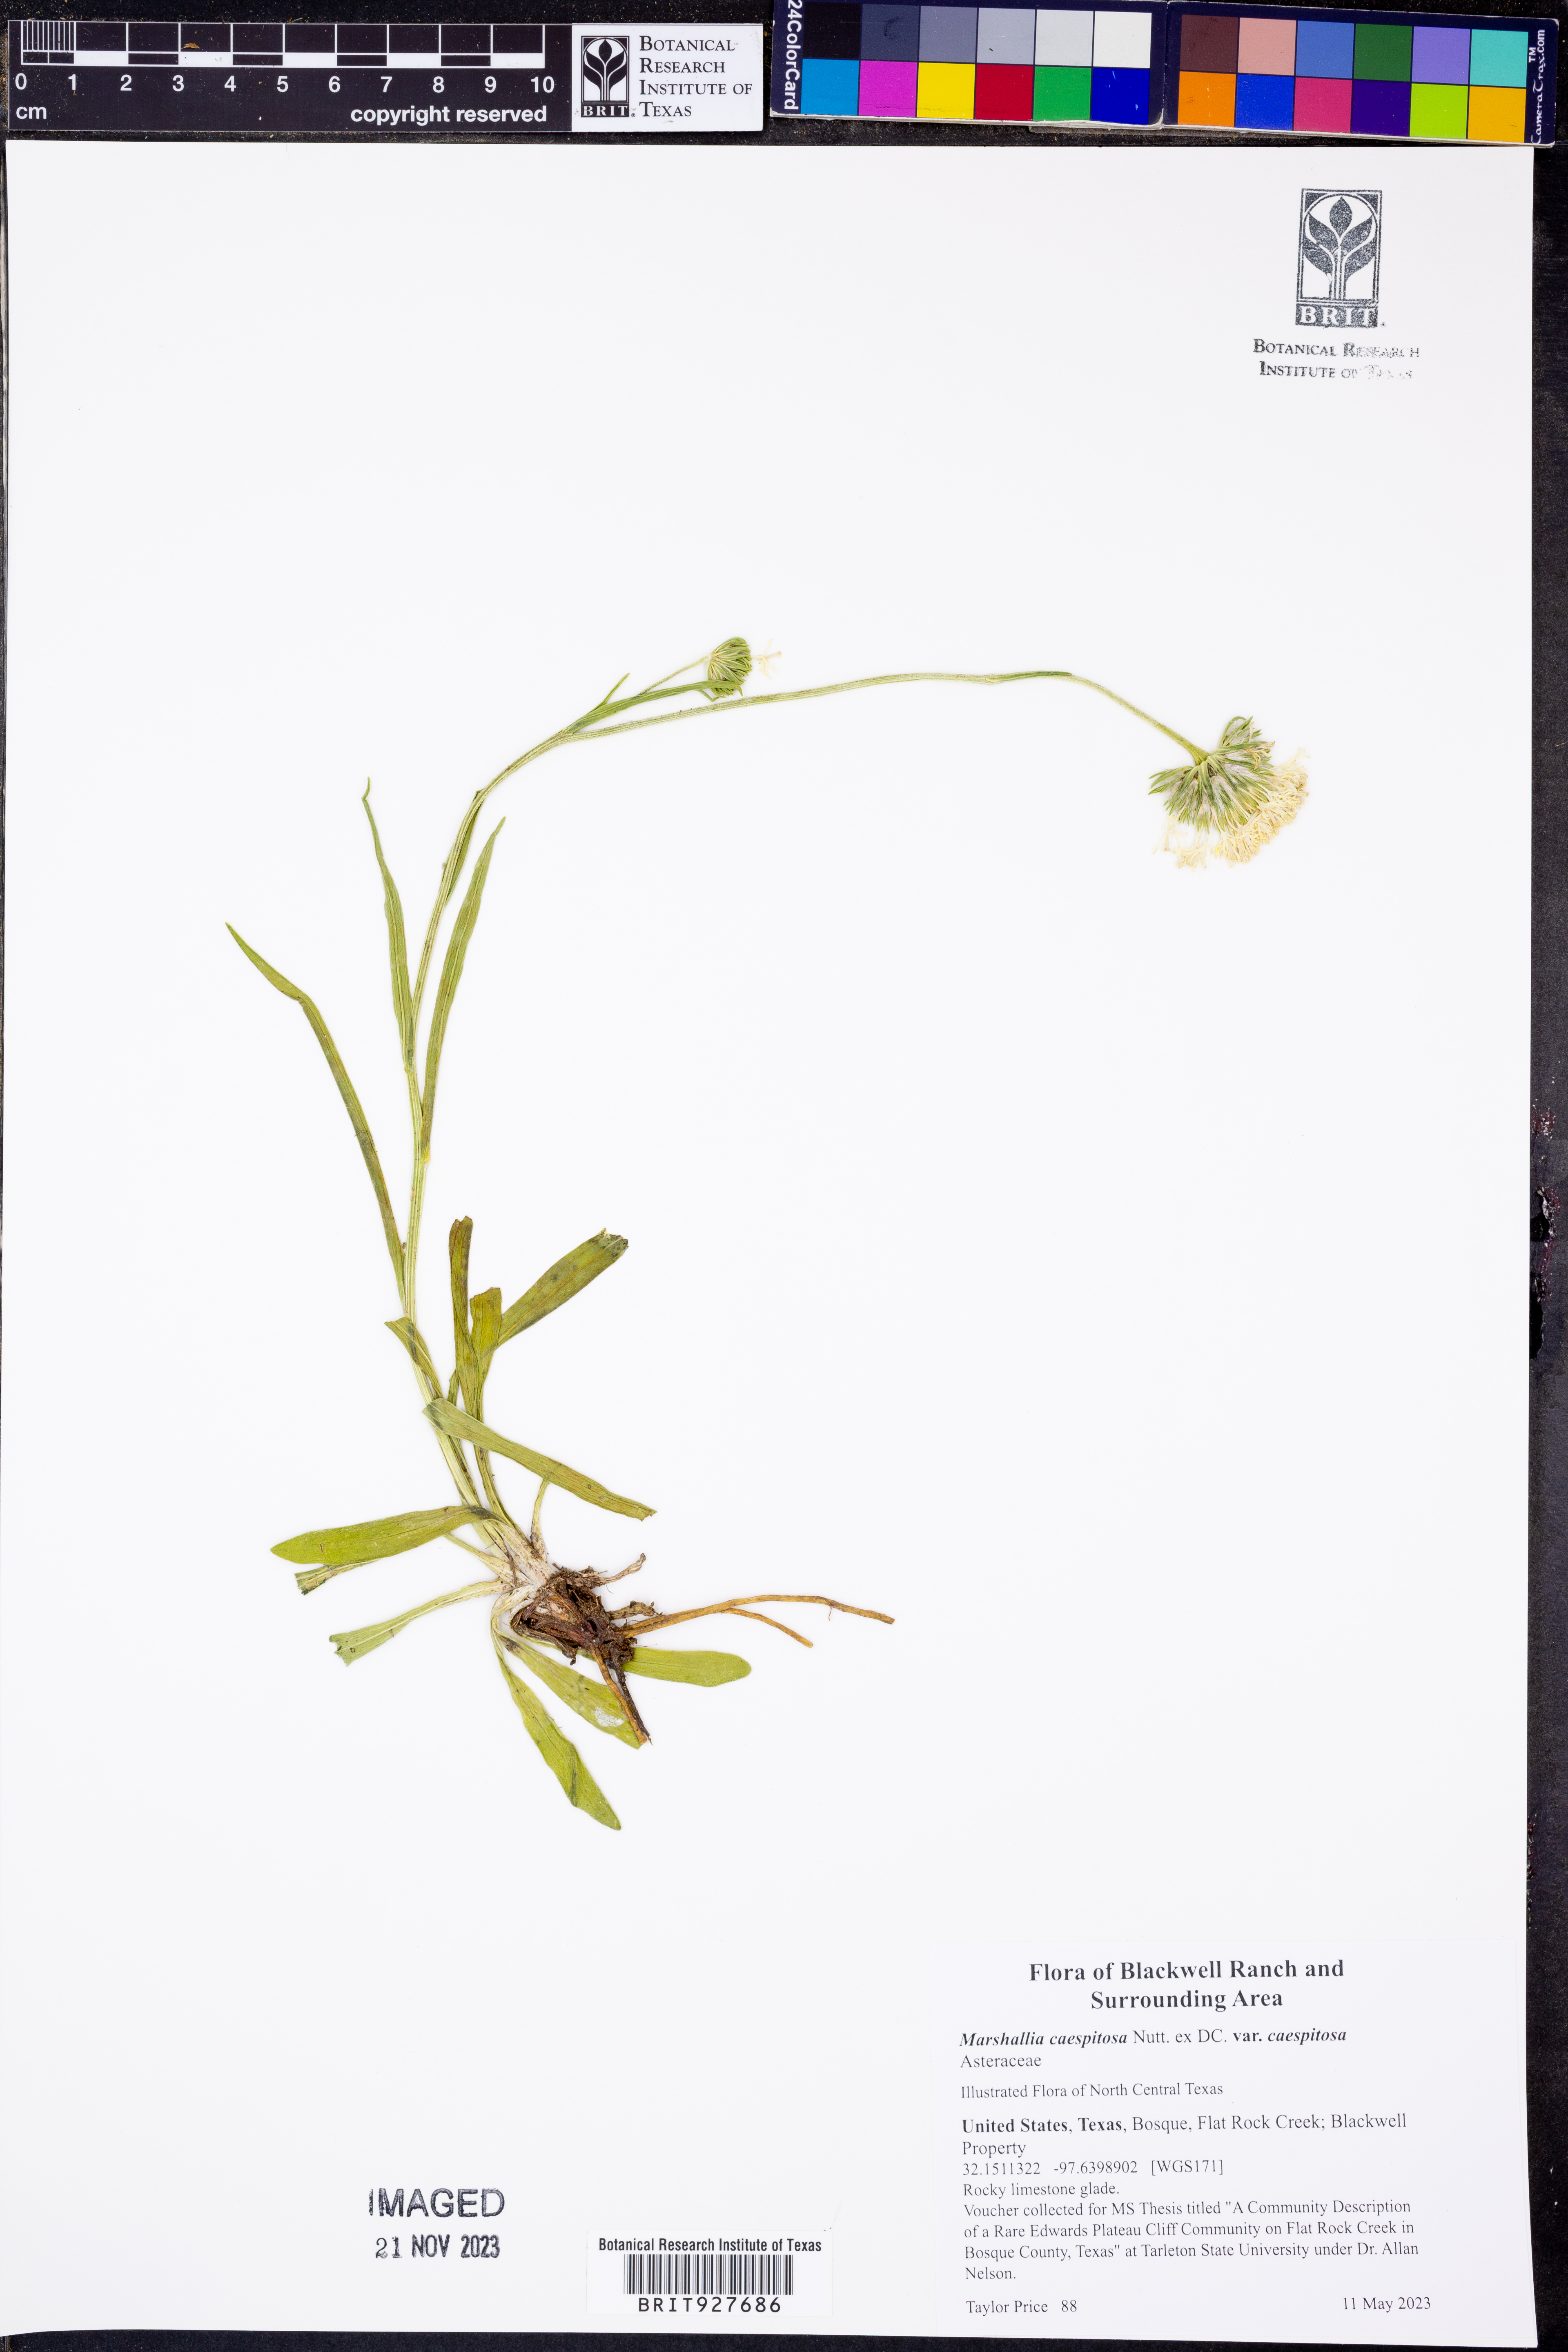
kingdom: Plantae
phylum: Tracheophyta
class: Magnoliopsida
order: Asterales
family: Asteraceae
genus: Marshallia
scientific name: Marshallia caespitosa
